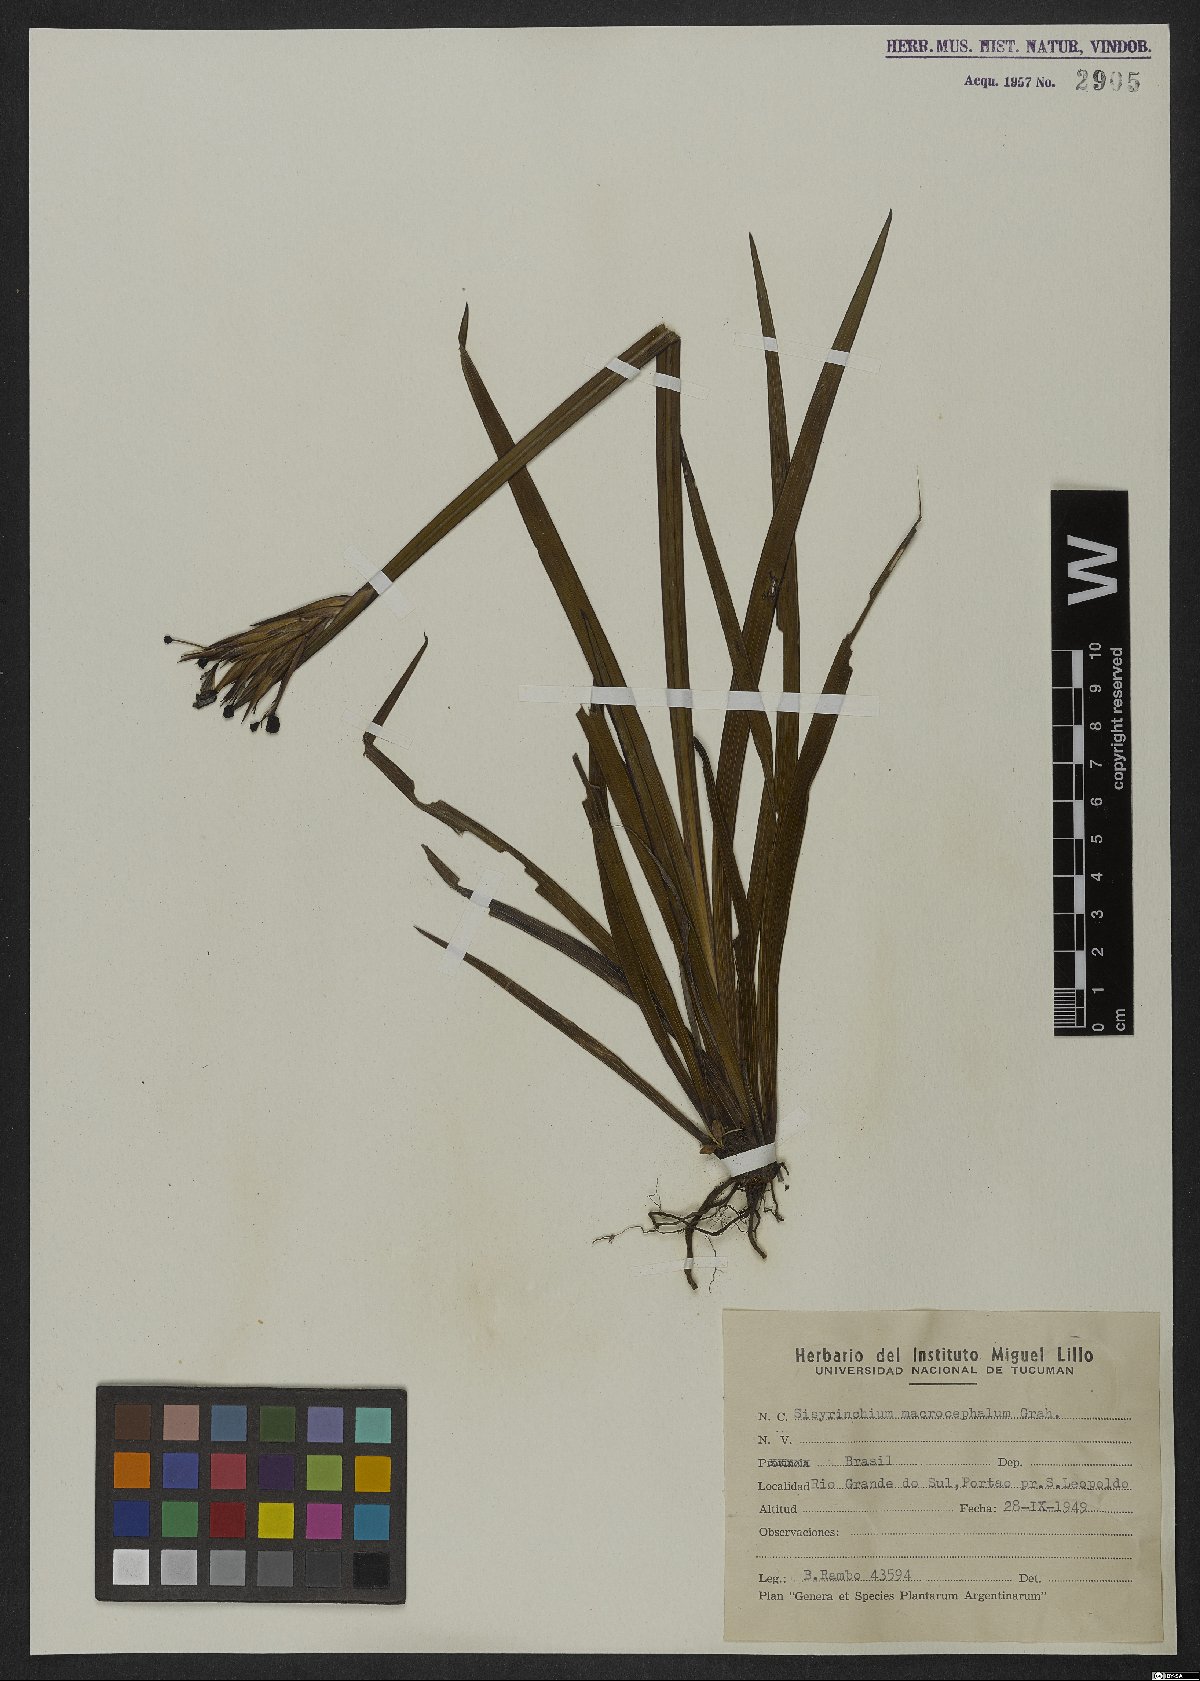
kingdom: Plantae
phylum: Tracheophyta
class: Liliopsida
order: Asparagales
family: Iridaceae
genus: Sisyrinchium
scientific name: Sisyrinchium palmifolium
